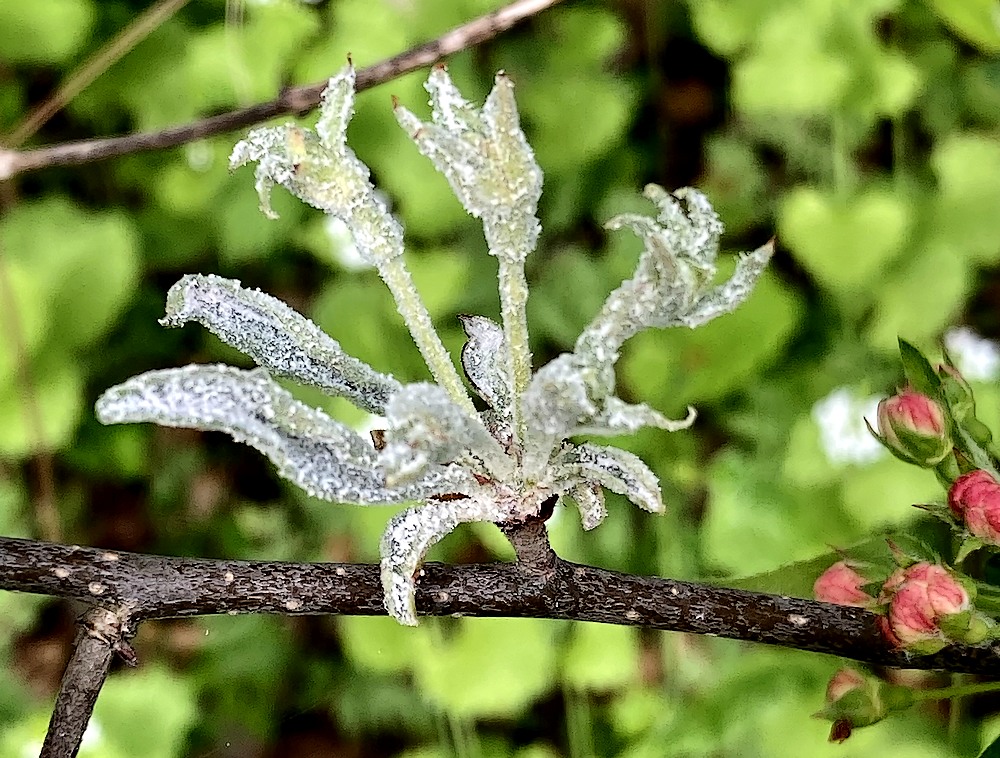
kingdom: Fungi
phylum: Ascomycota
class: Leotiomycetes
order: Helotiales
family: Erysiphaceae
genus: Podosphaera
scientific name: Podosphaera clandestina
